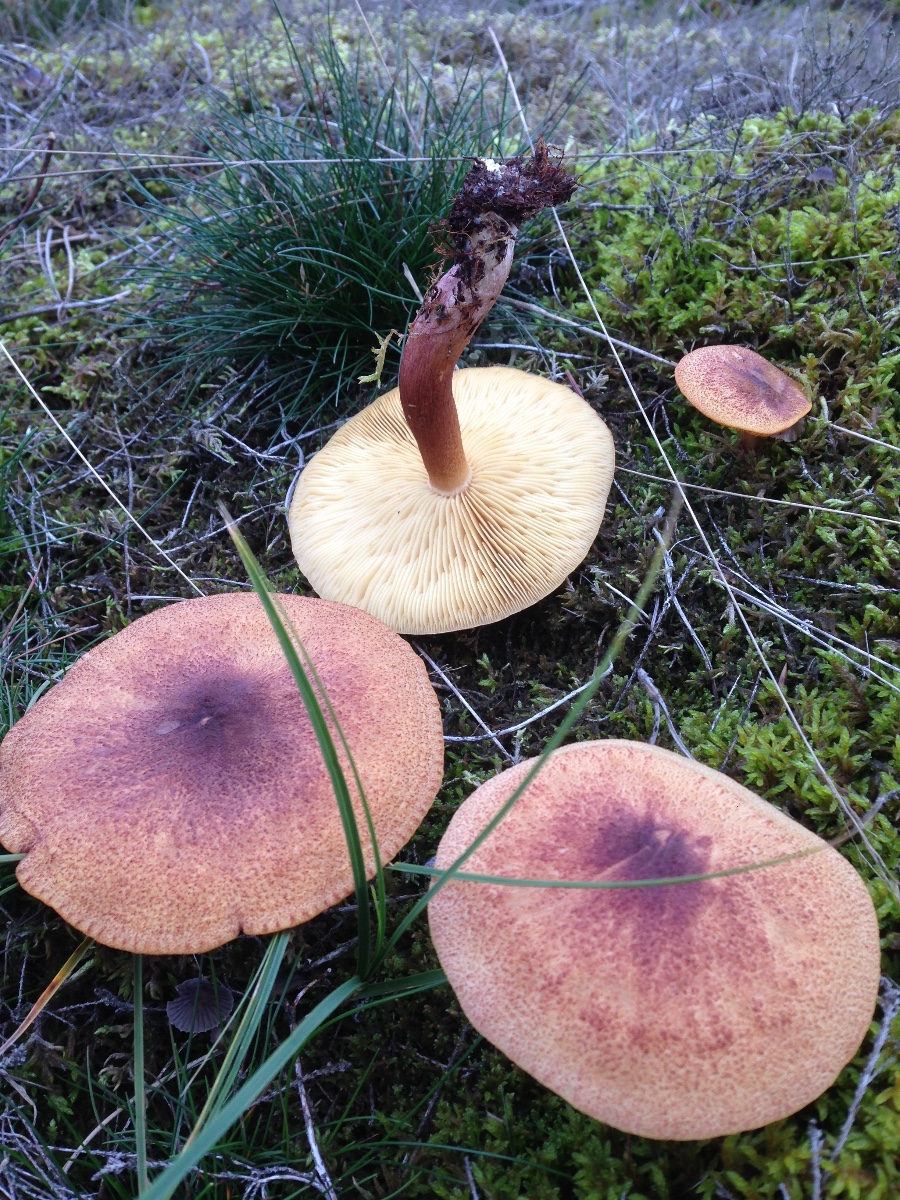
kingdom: Fungi
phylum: Basidiomycota
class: Agaricomycetes
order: Agaricales
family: Tricholomataceae
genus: Tricholomopsis
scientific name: Tricholomopsis rutilans
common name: purpur-væbnerhat
